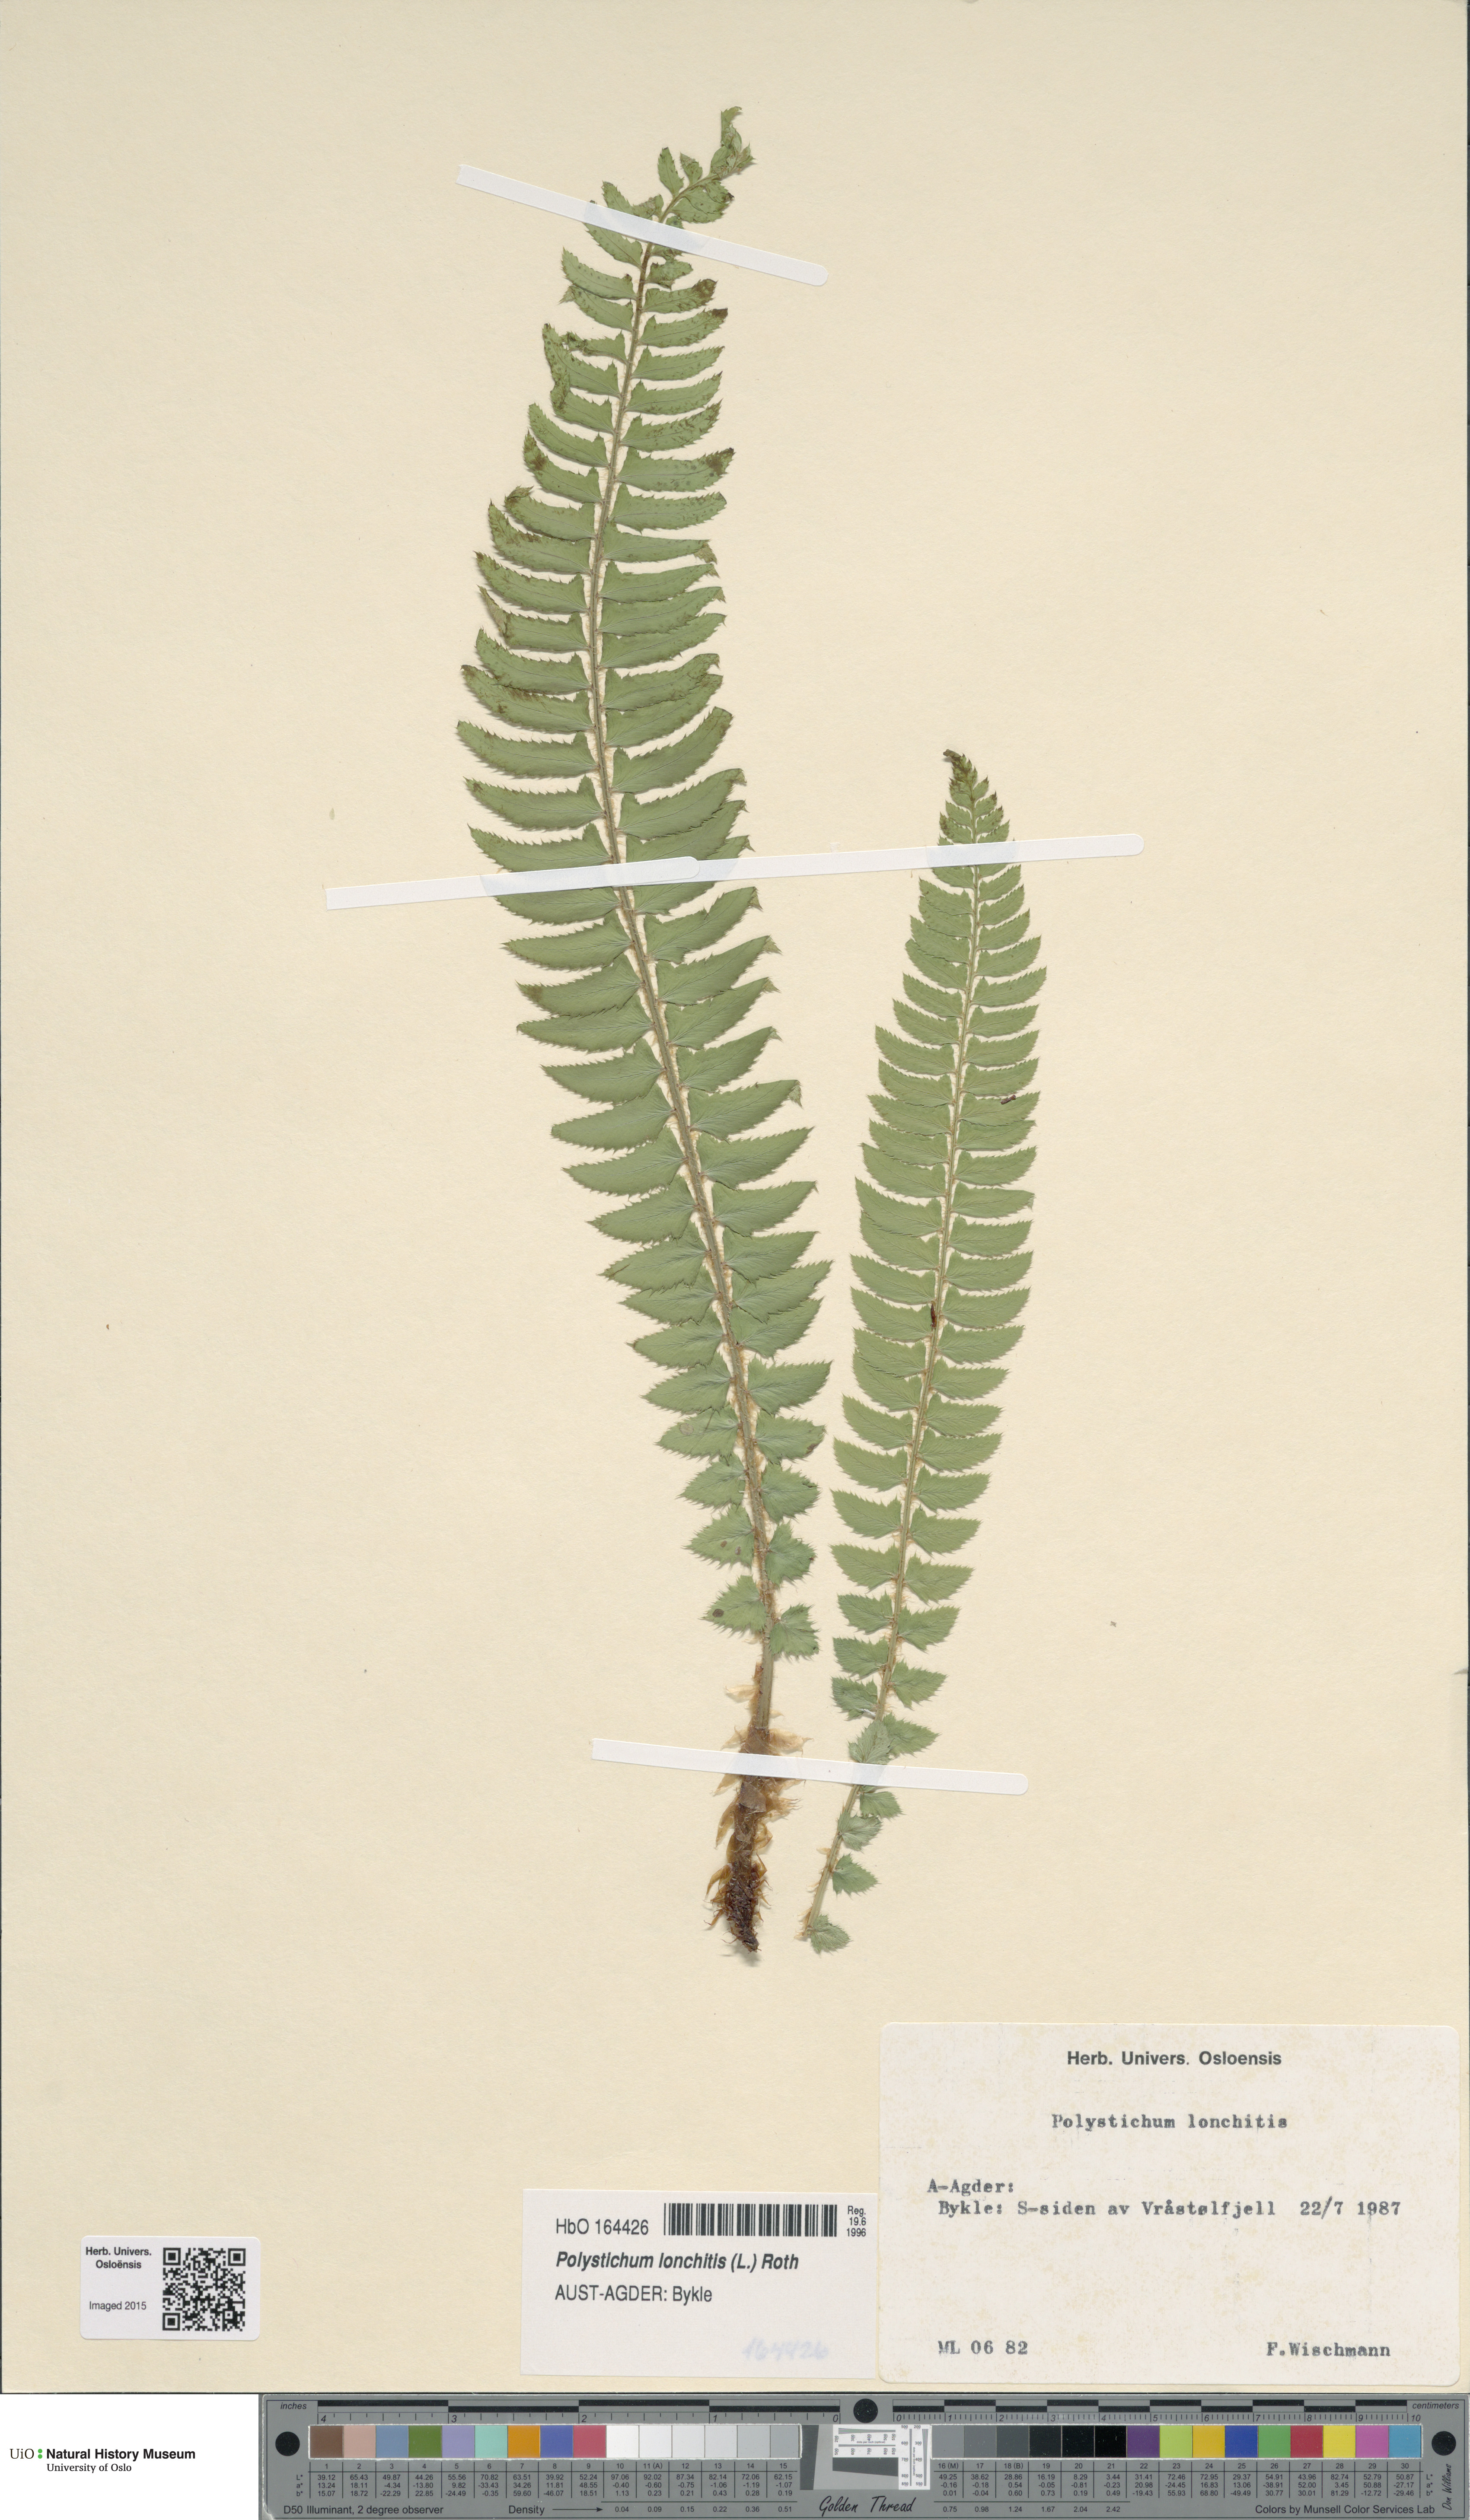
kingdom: Plantae
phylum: Tracheophyta
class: Polypodiopsida
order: Polypodiales
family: Dryopteridaceae
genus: Polystichum
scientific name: Polystichum lonchitis
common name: Holly fern
